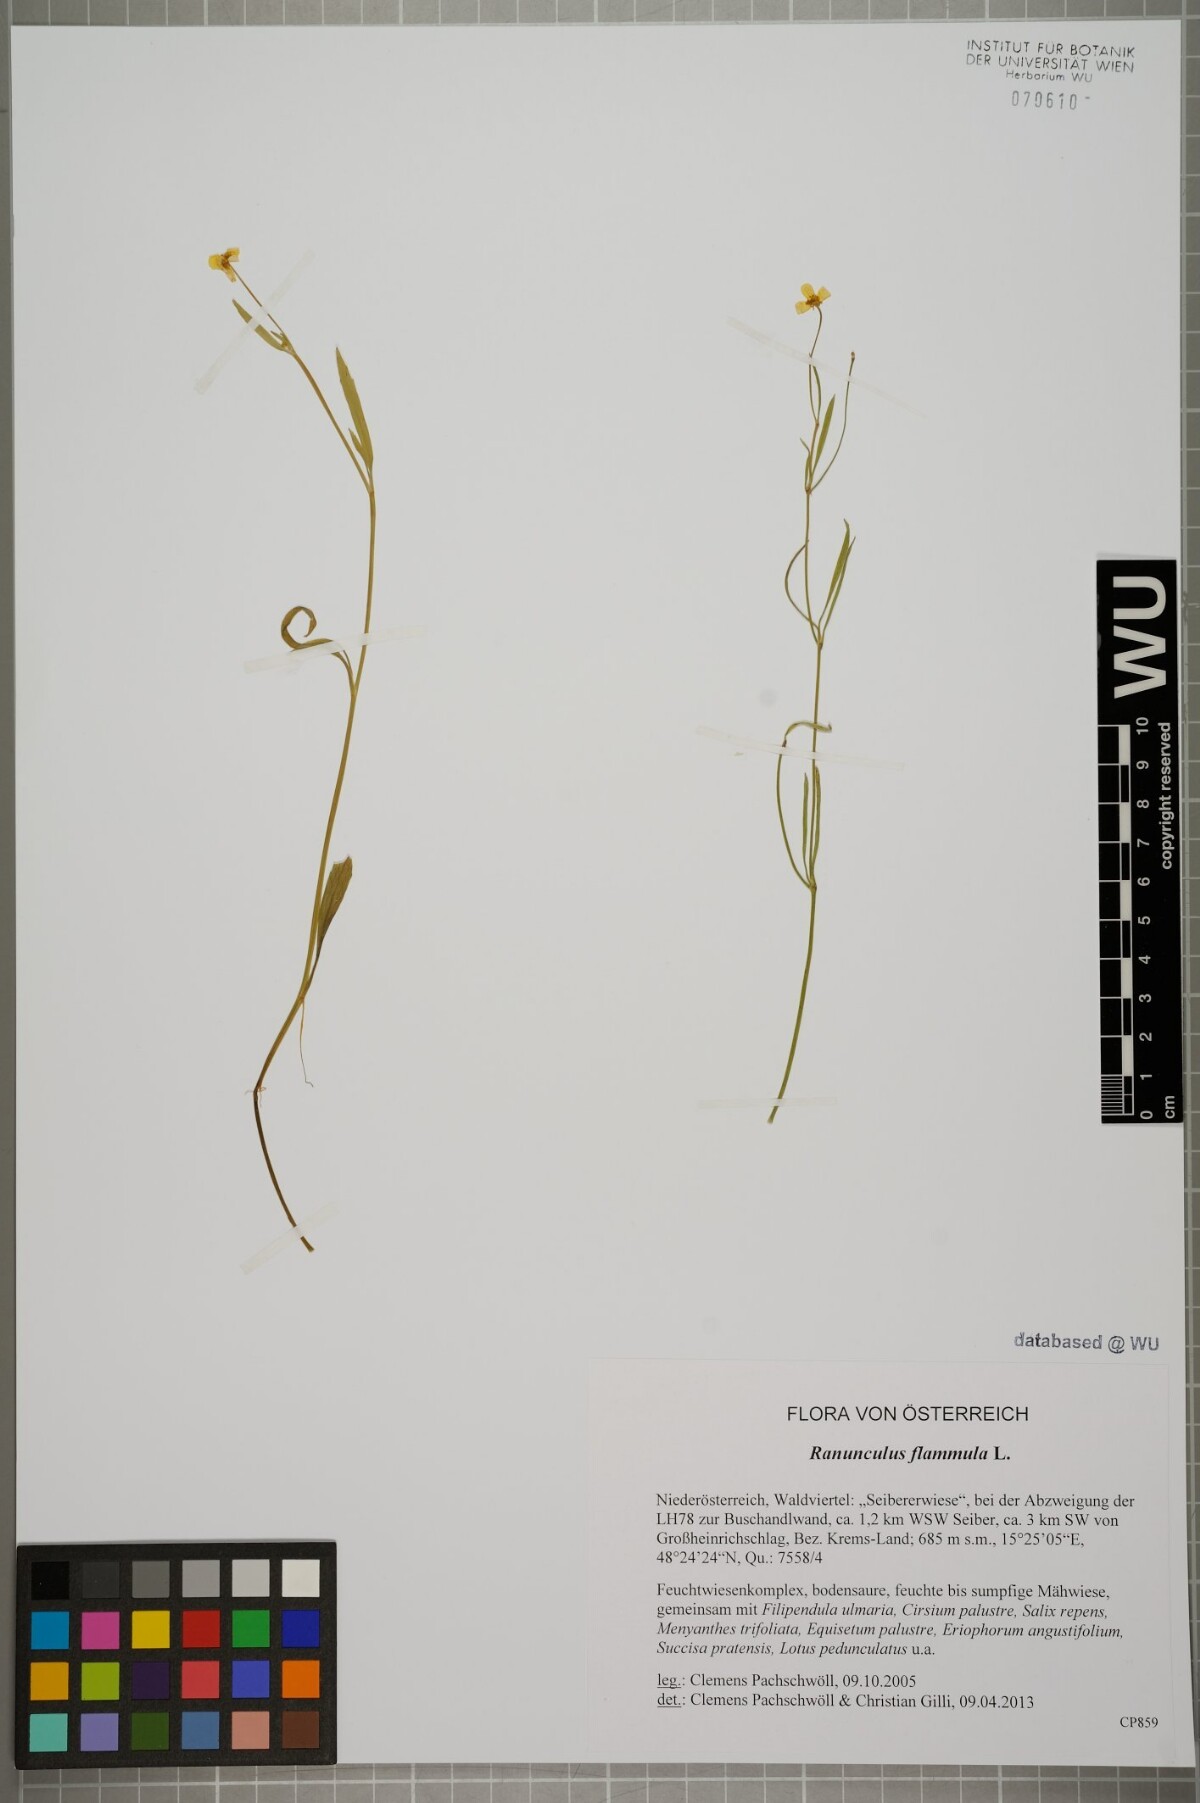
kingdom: Plantae
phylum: Tracheophyta
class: Magnoliopsida
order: Ranunculales
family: Ranunculaceae
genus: Ranunculus
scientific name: Ranunculus flammula
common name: Lesser spearwort
